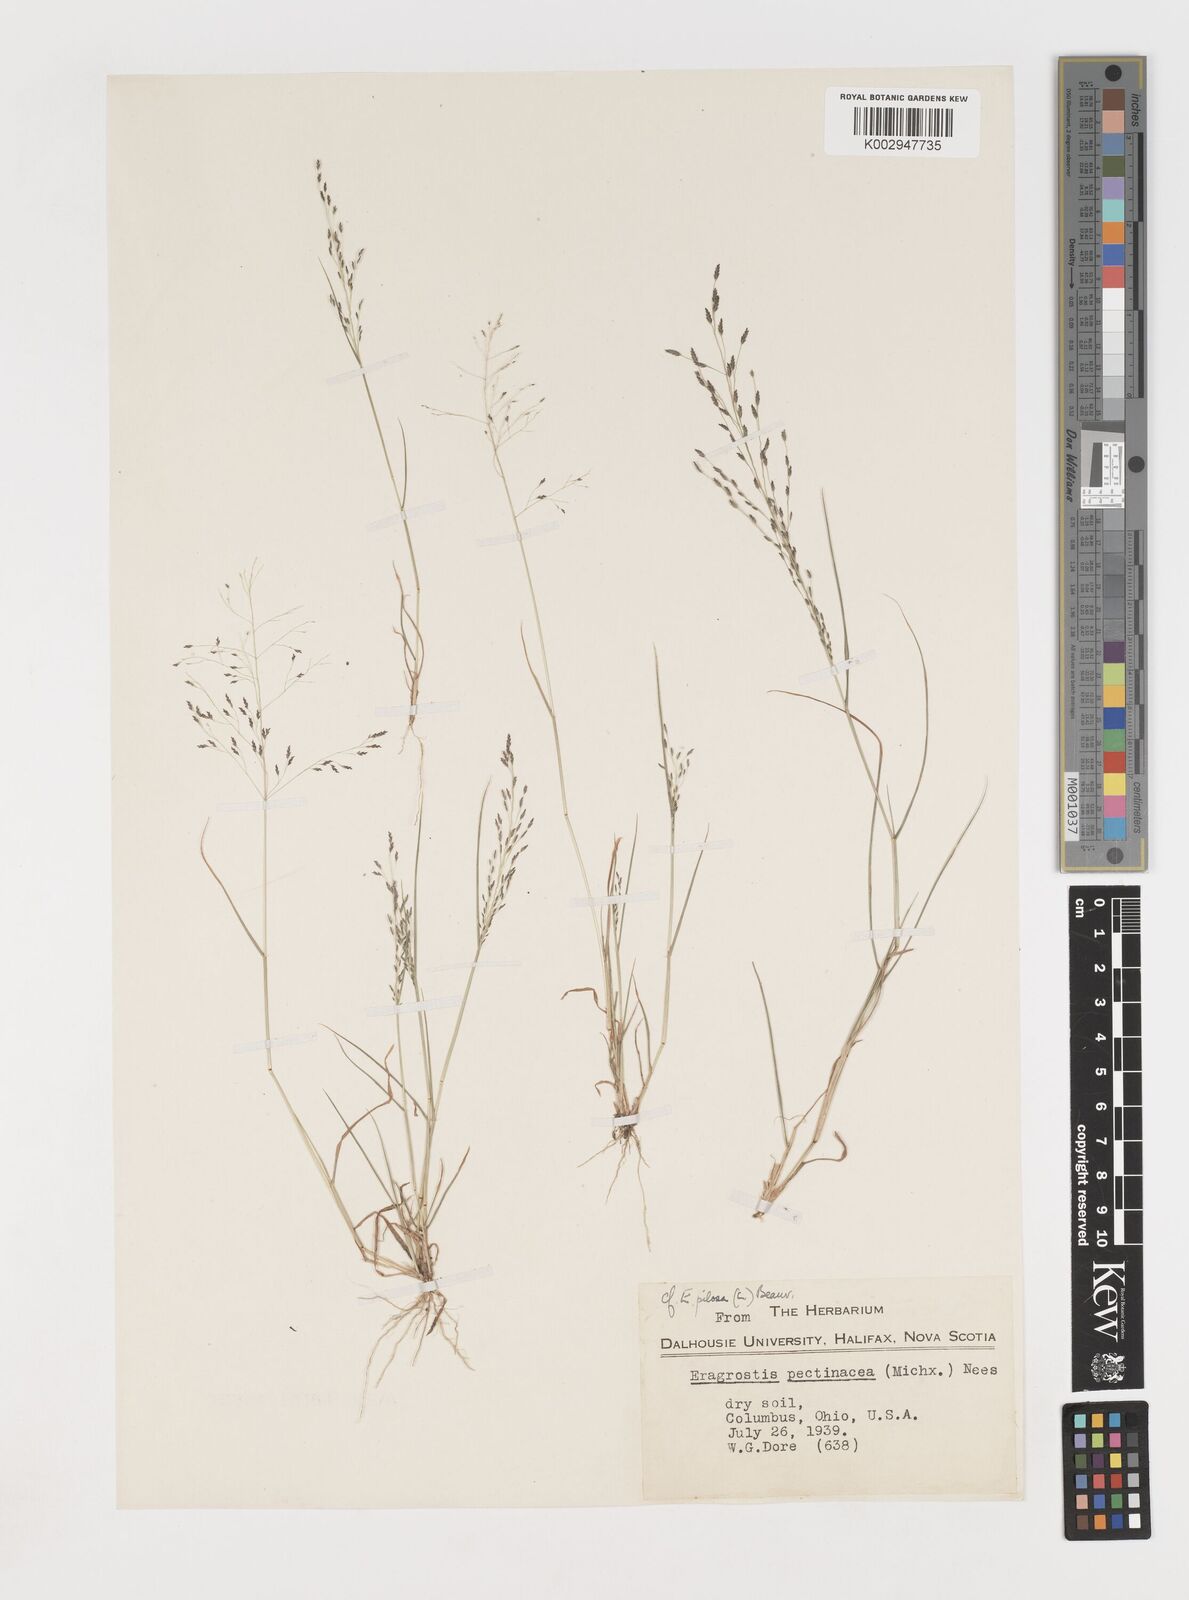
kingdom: Plantae
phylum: Tracheophyta
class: Liliopsida
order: Poales
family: Poaceae
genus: Eragrostis
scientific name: Eragrostis pilosa
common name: Indian lovegrass
